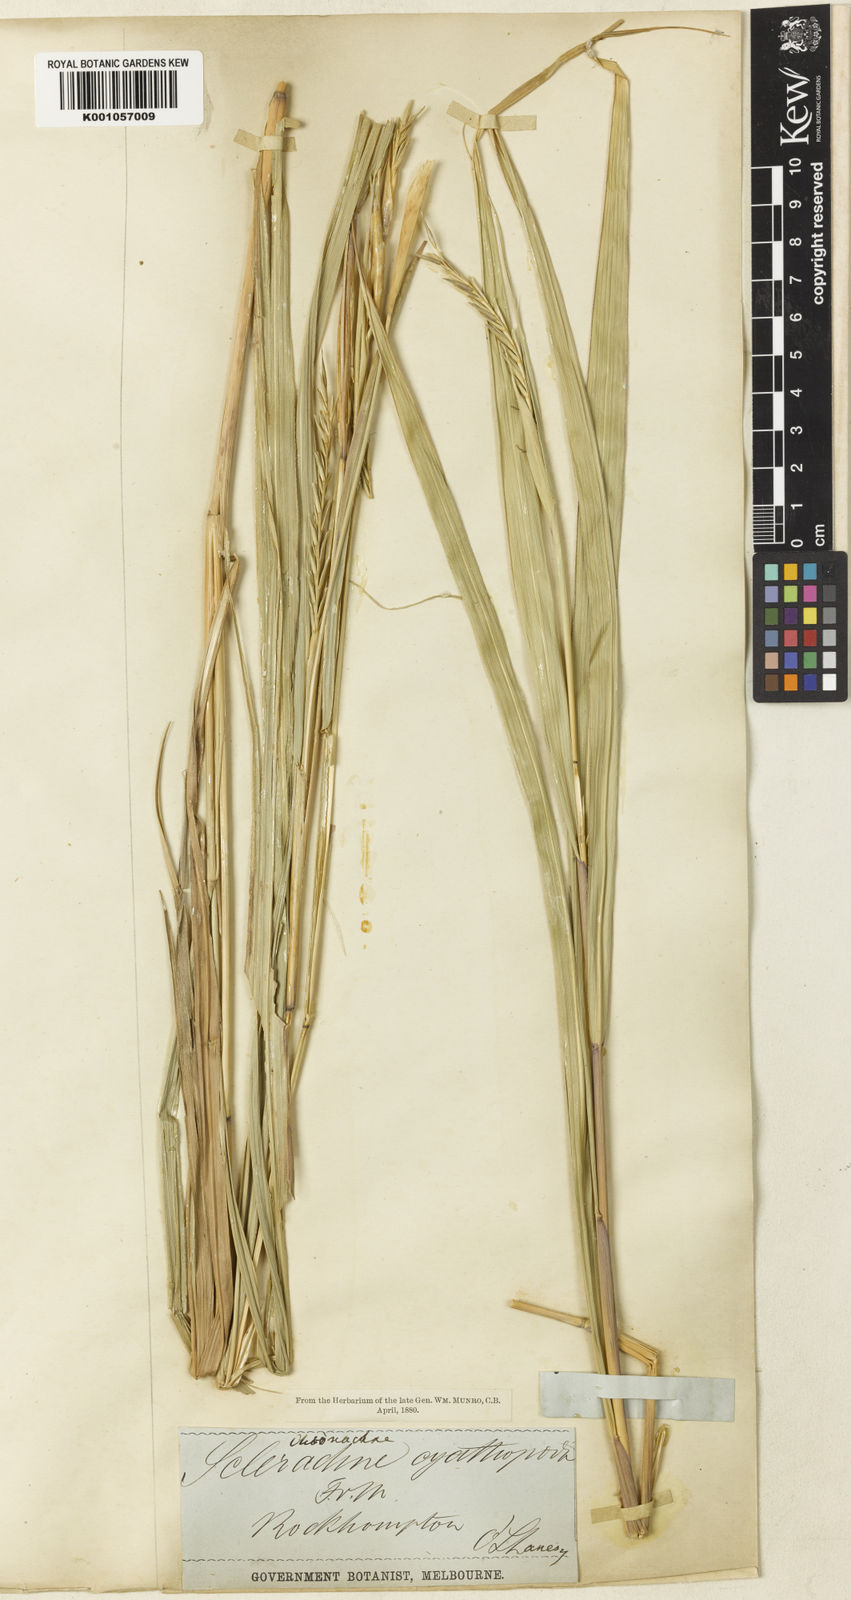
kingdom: Plantae
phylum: Tracheophyta
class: Liliopsida
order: Poales
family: Poaceae
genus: Polytoca
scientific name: Polytoca cyathopoda
